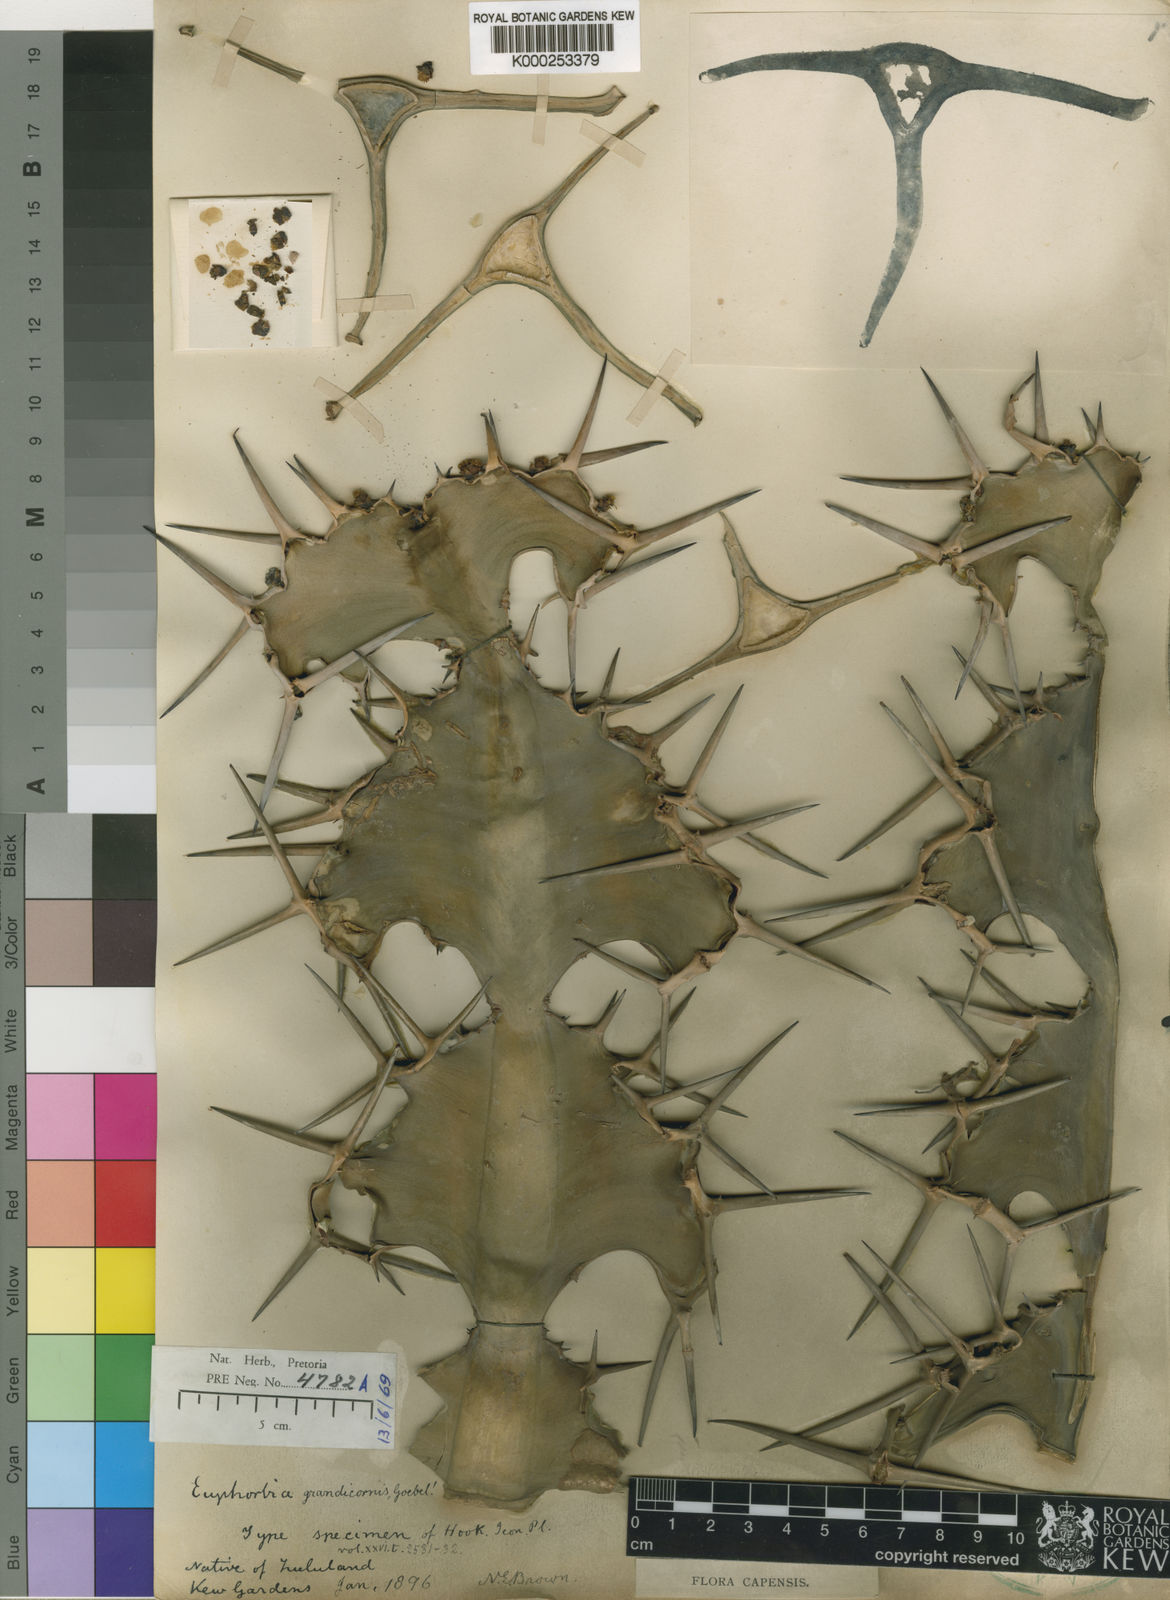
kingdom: Plantae
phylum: Tracheophyta
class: Magnoliopsida
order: Malpighiales
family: Euphorbiaceae
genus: Euphorbia
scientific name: Euphorbia
